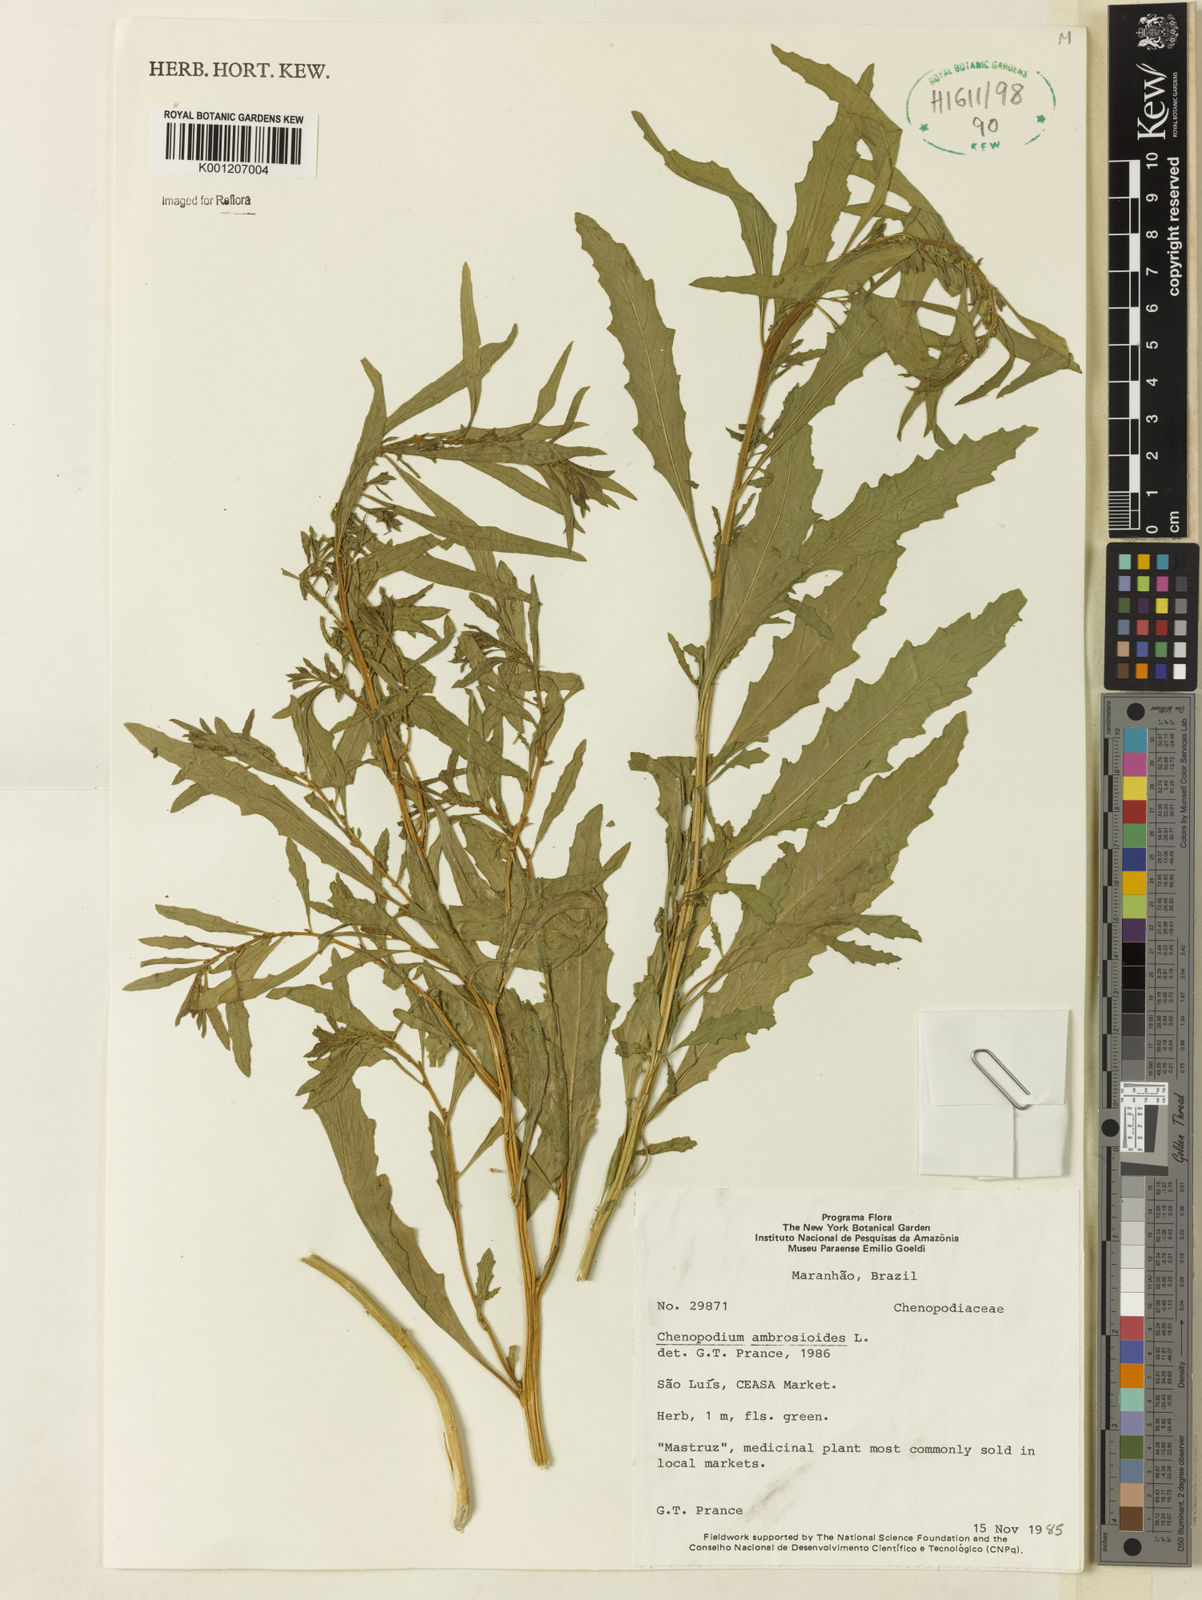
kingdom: Plantae
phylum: Tracheophyta
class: Magnoliopsida
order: Caryophyllales
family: Amaranthaceae
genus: Dysphania
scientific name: Dysphania ambrosioides
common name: Wormseed
